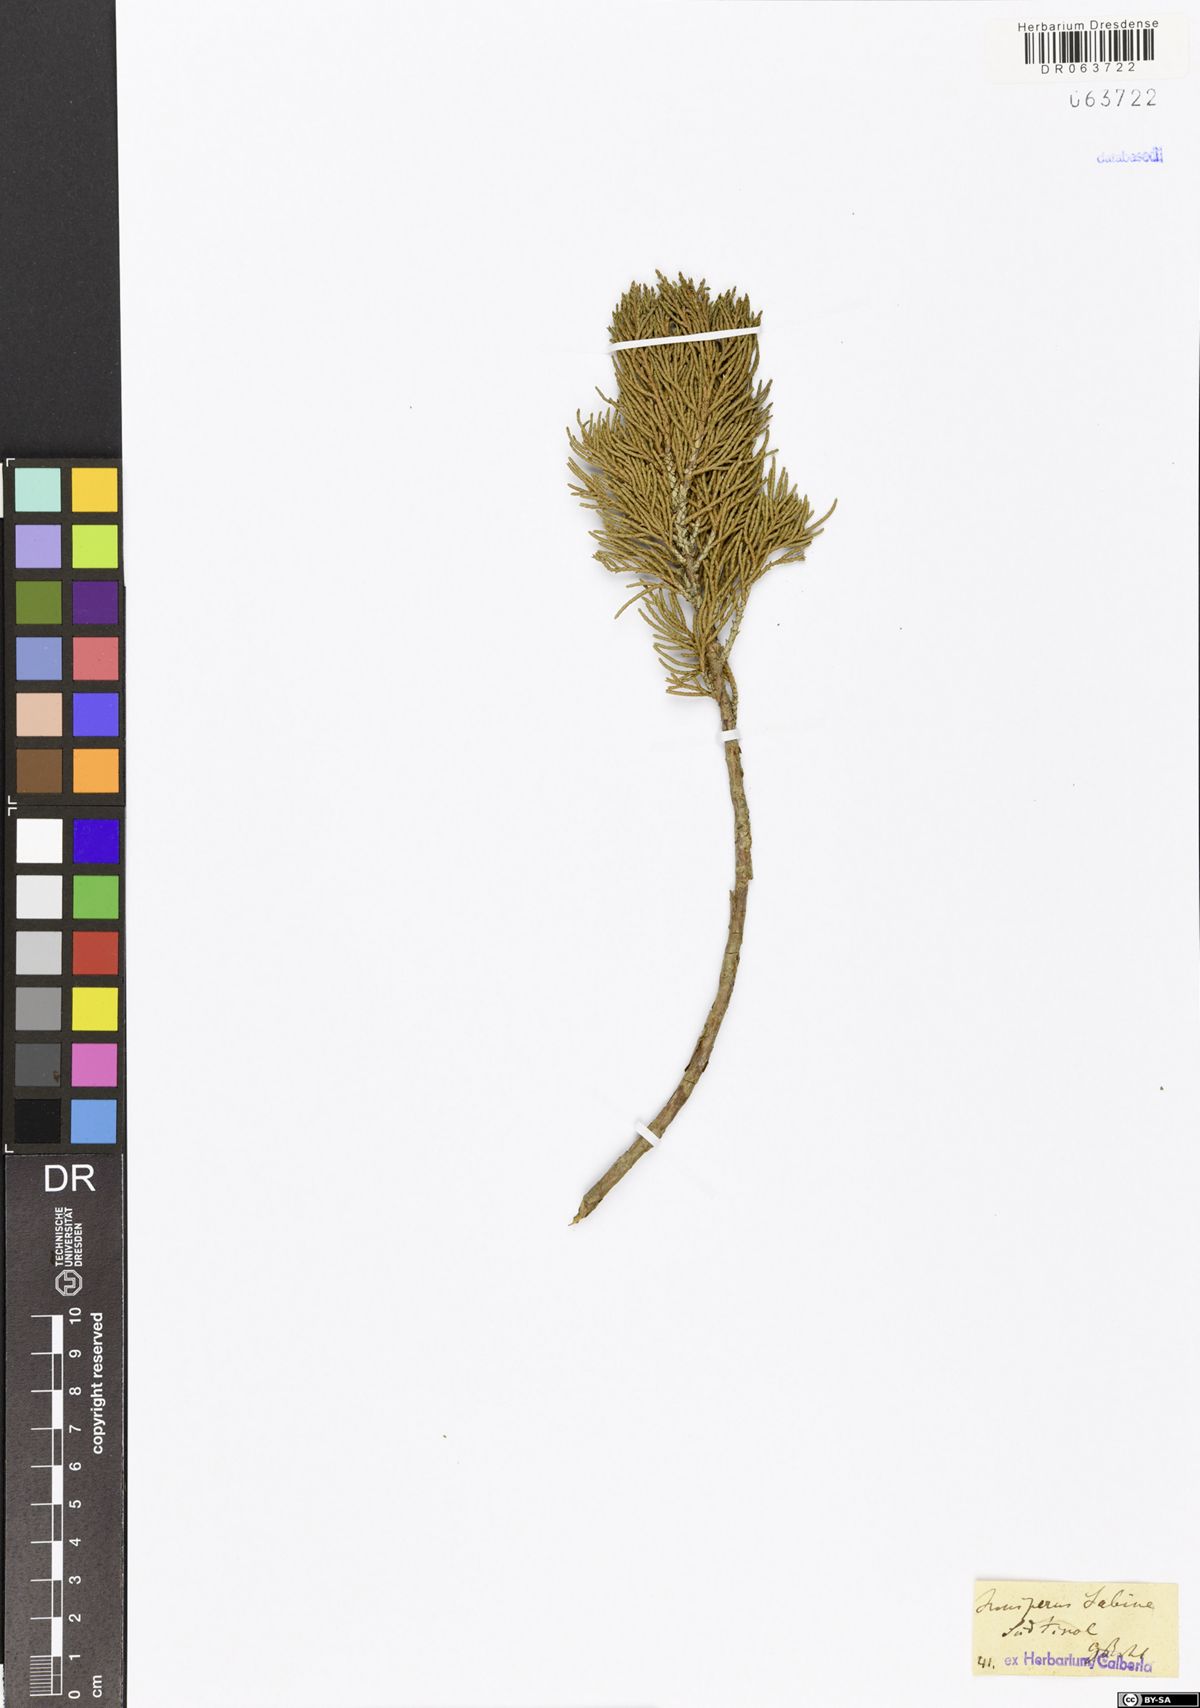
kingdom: Plantae
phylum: Tracheophyta
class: Pinopsida
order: Pinales
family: Cupressaceae
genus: Juniperus
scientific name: Juniperus sabina
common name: Savin
